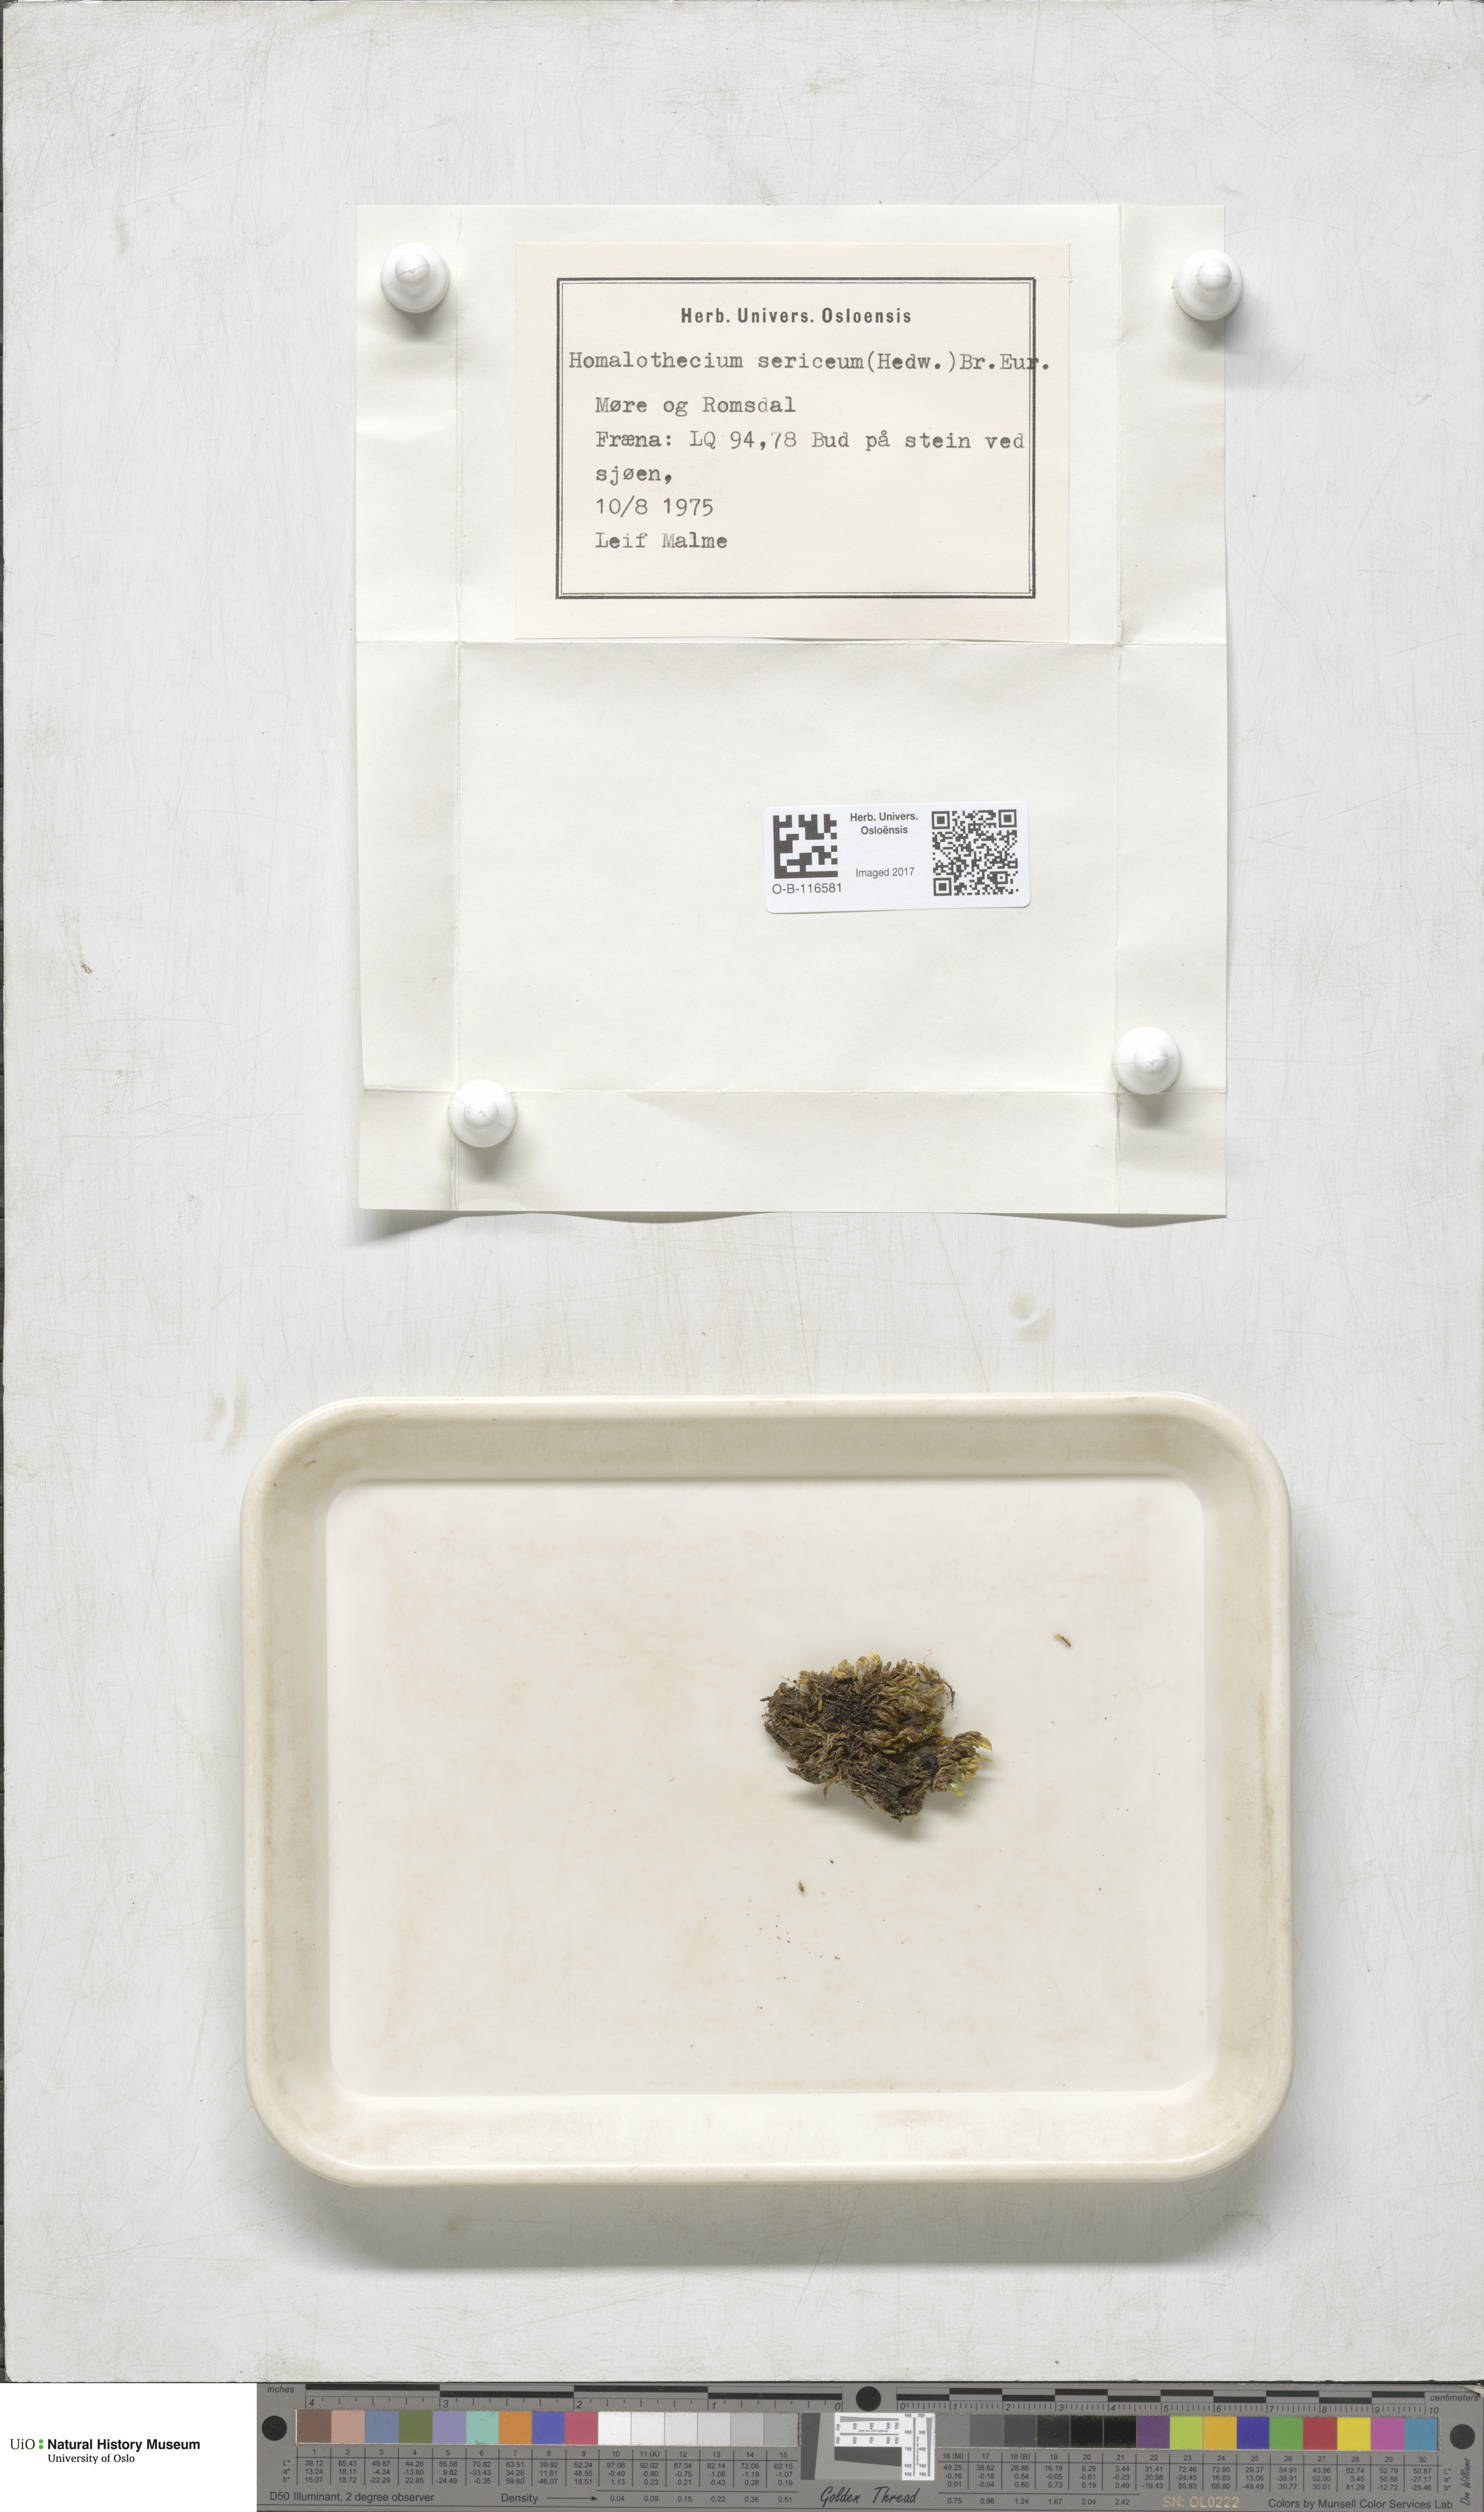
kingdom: Plantae
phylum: Bryophyta
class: Bryopsida
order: Hypnales
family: Brachytheciaceae
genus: Homalothecium
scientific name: Homalothecium sericeum
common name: Silky wall feather-moss
